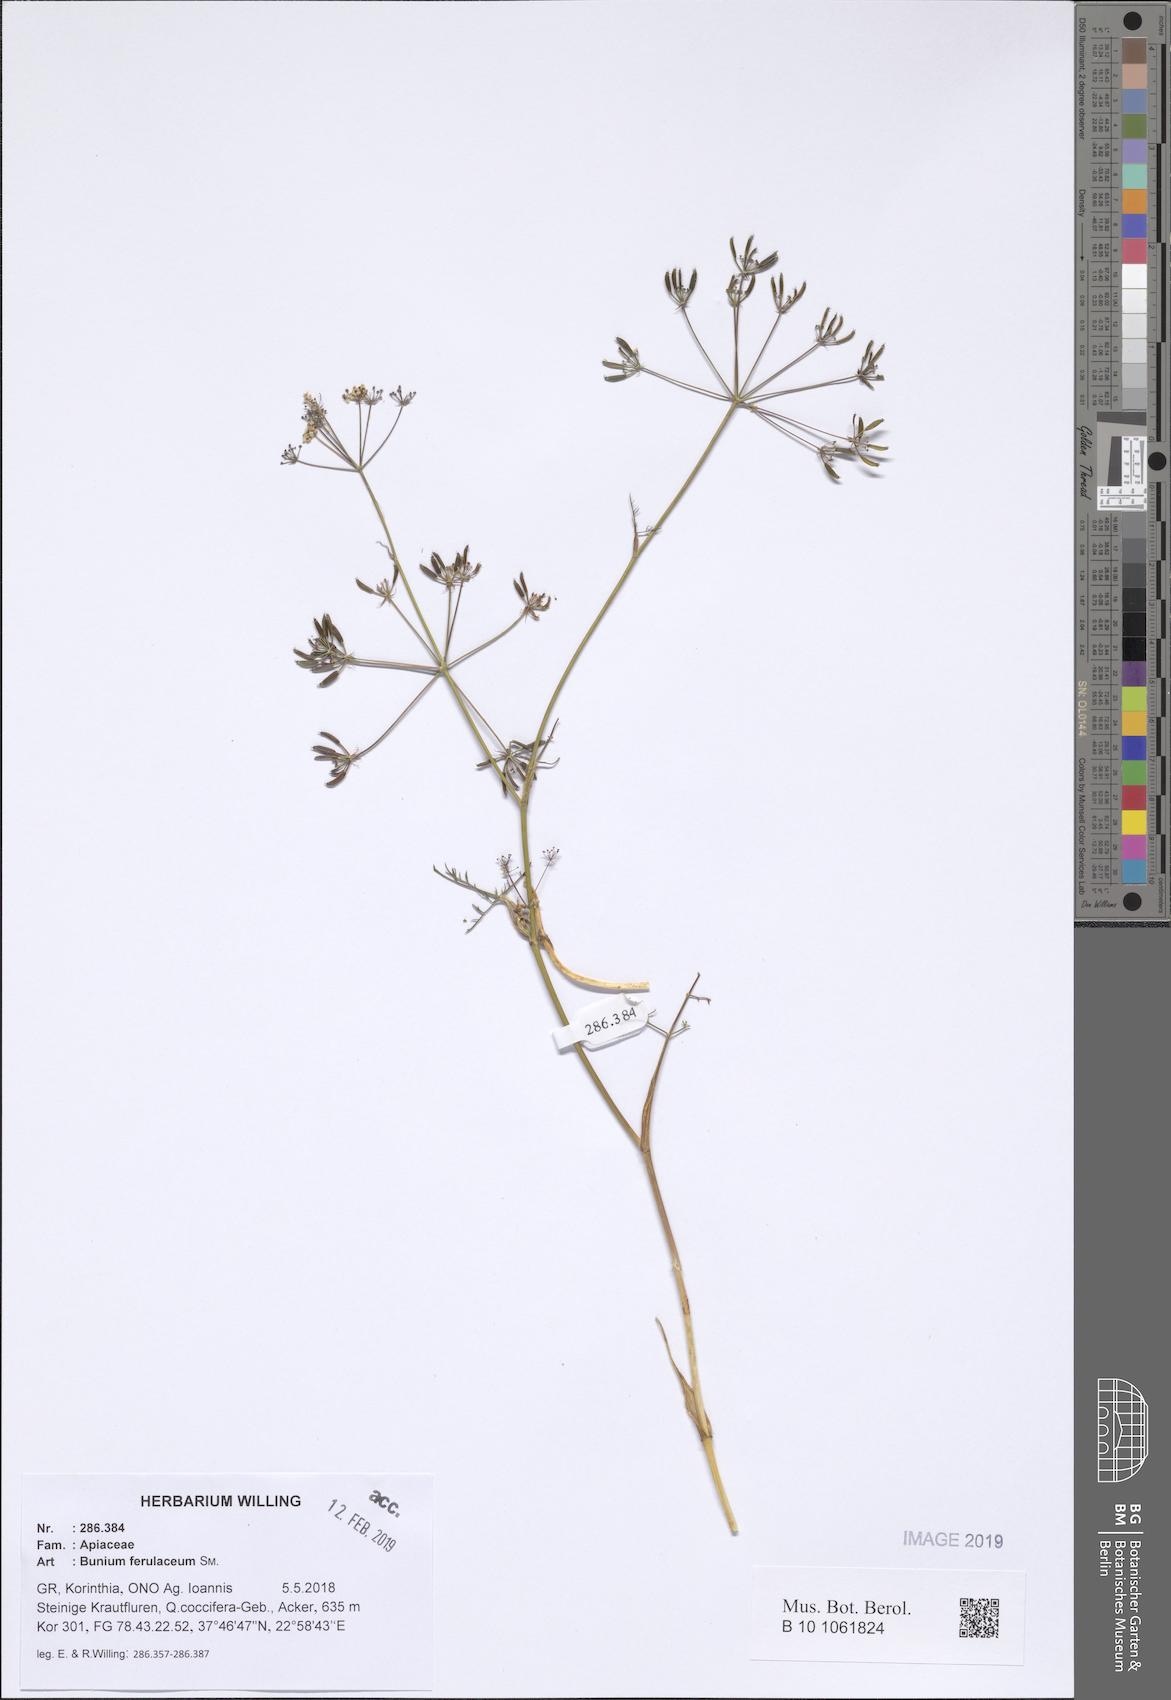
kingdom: Plantae
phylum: Tracheophyta
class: Magnoliopsida
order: Apiales
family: Apiaceae
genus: Bunium
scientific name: Bunium ferulaceum
